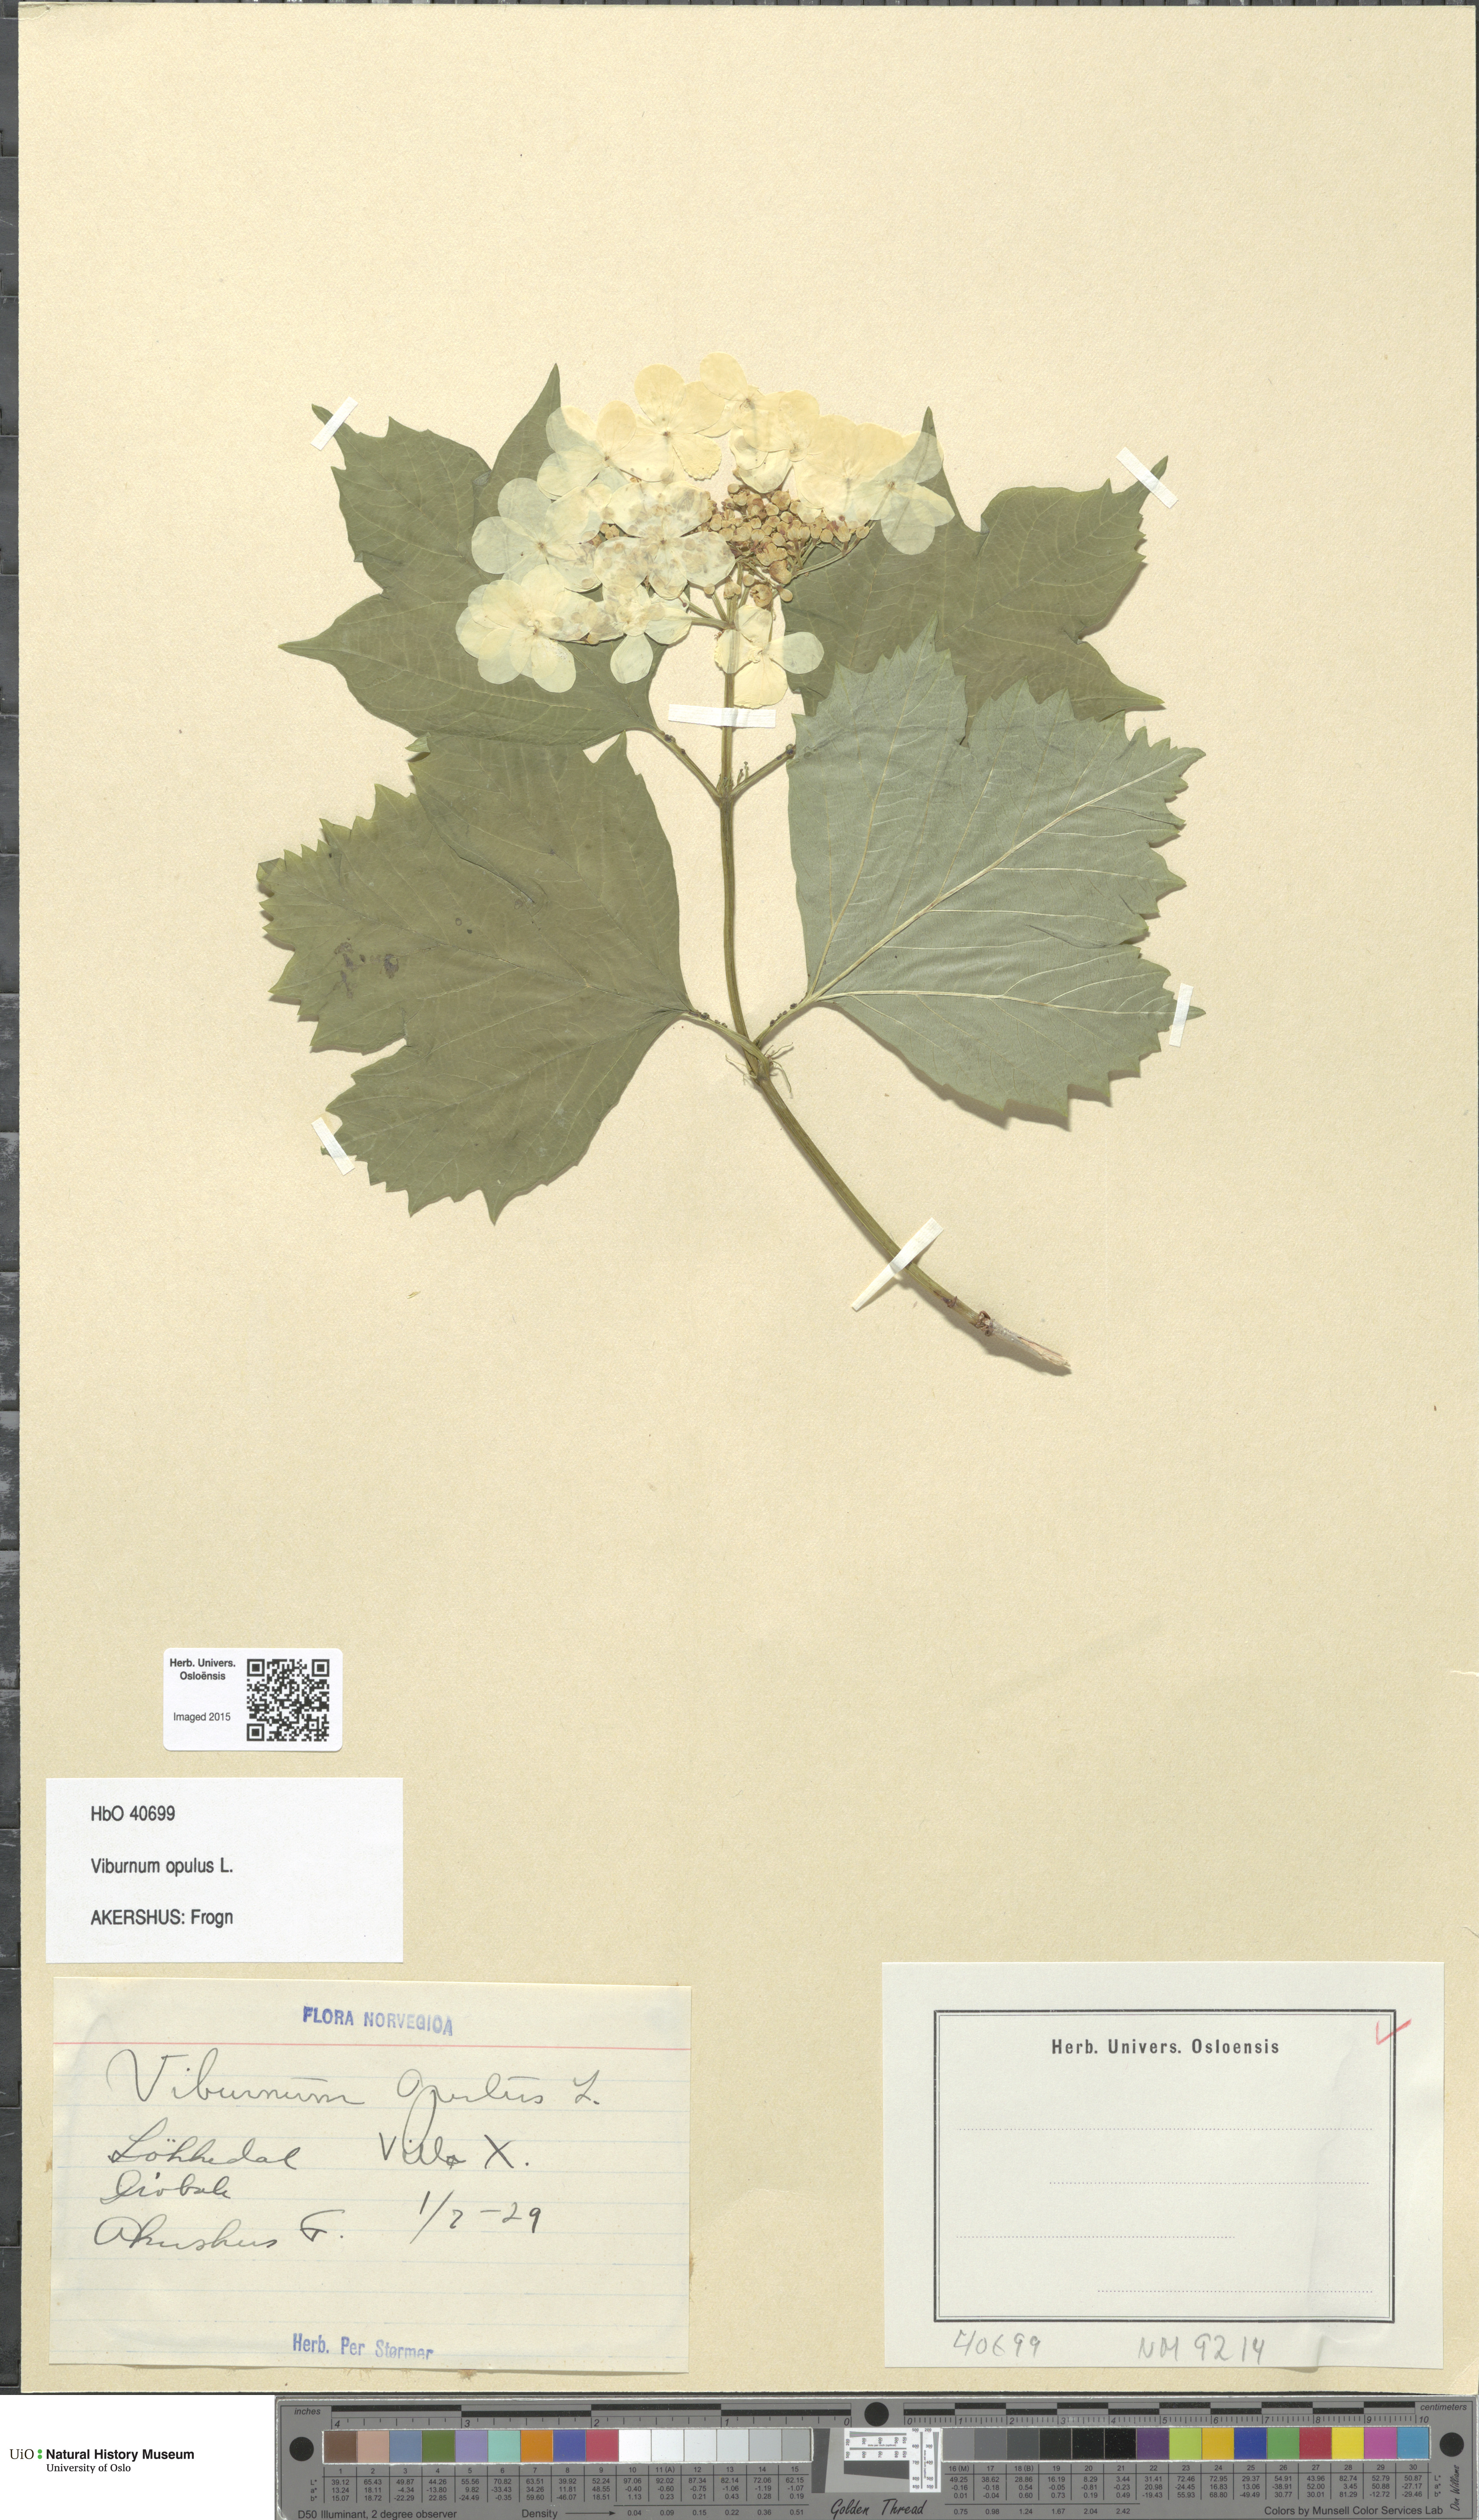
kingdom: Plantae
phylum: Tracheophyta
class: Magnoliopsida
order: Dipsacales
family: Viburnaceae
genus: Viburnum
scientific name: Viburnum opulus
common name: Guelder-rose
